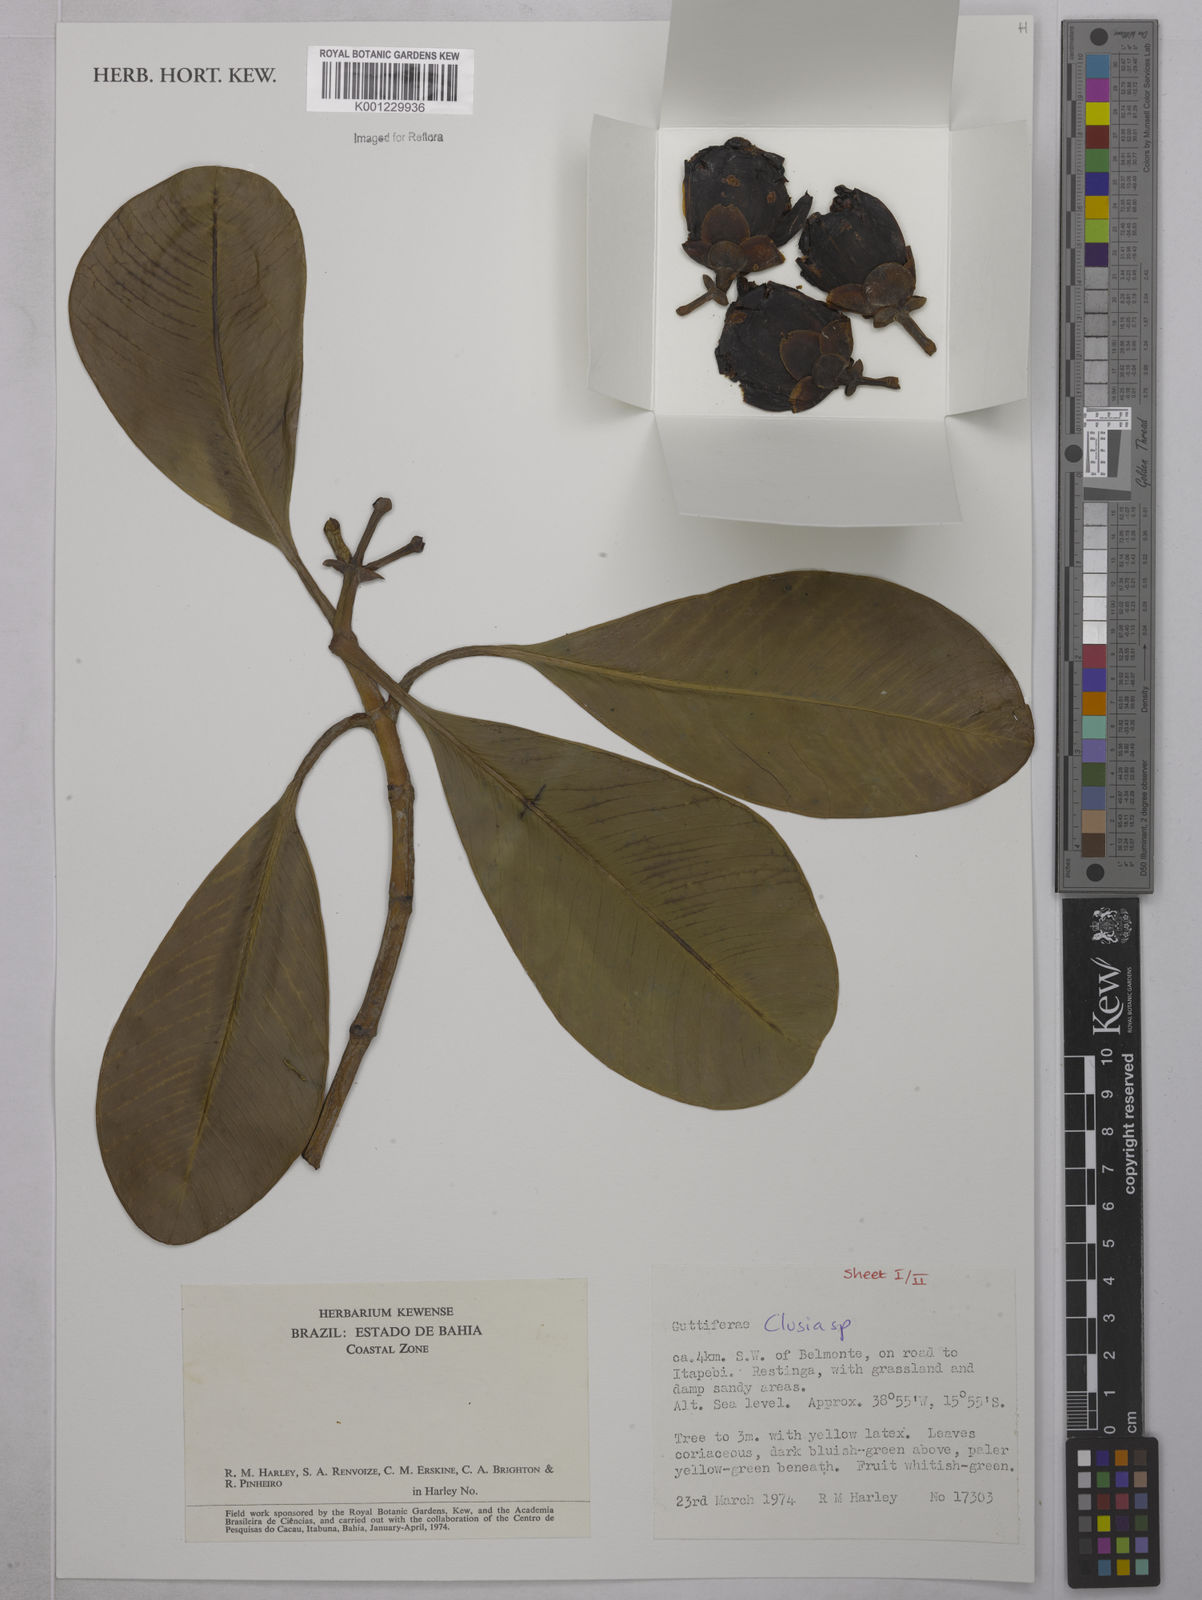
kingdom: Plantae
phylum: Tracheophyta
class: Magnoliopsida
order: Malpighiales
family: Clusiaceae
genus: Clusia
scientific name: Clusia
